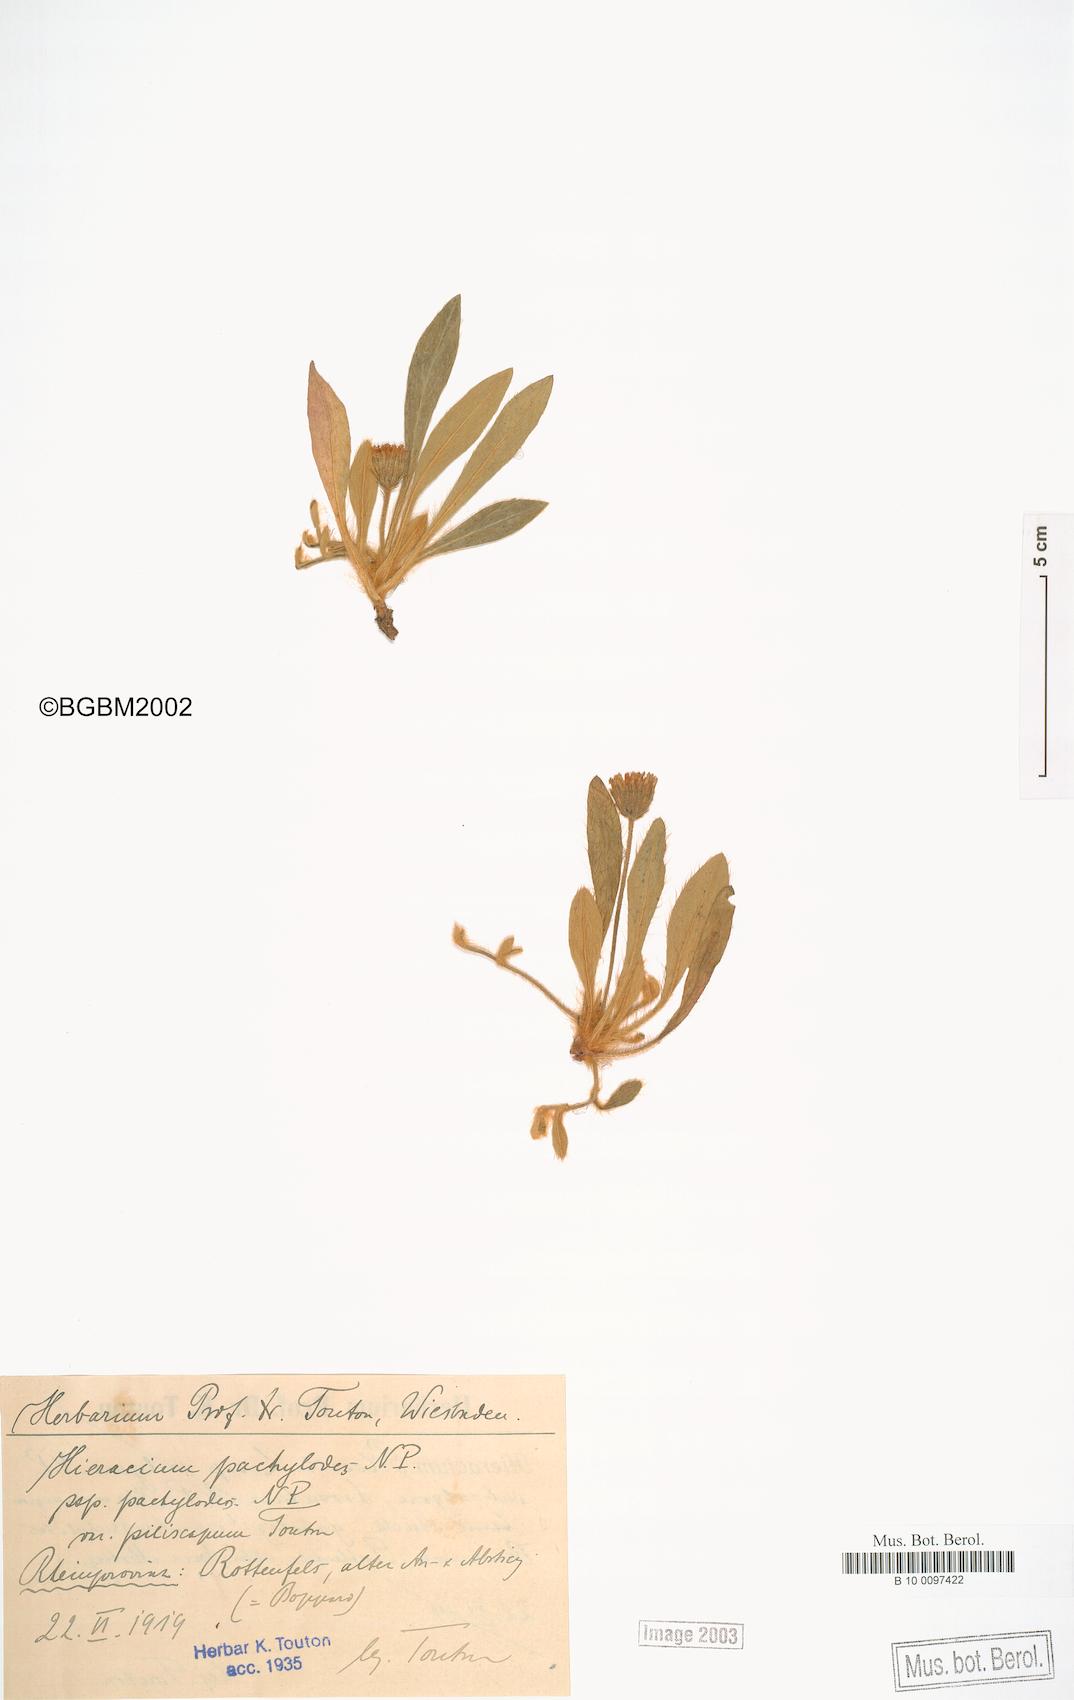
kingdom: Plantae
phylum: Tracheophyta
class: Magnoliopsida
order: Asterales
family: Asteraceae
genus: Pilosella
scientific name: Pilosella longisquama
